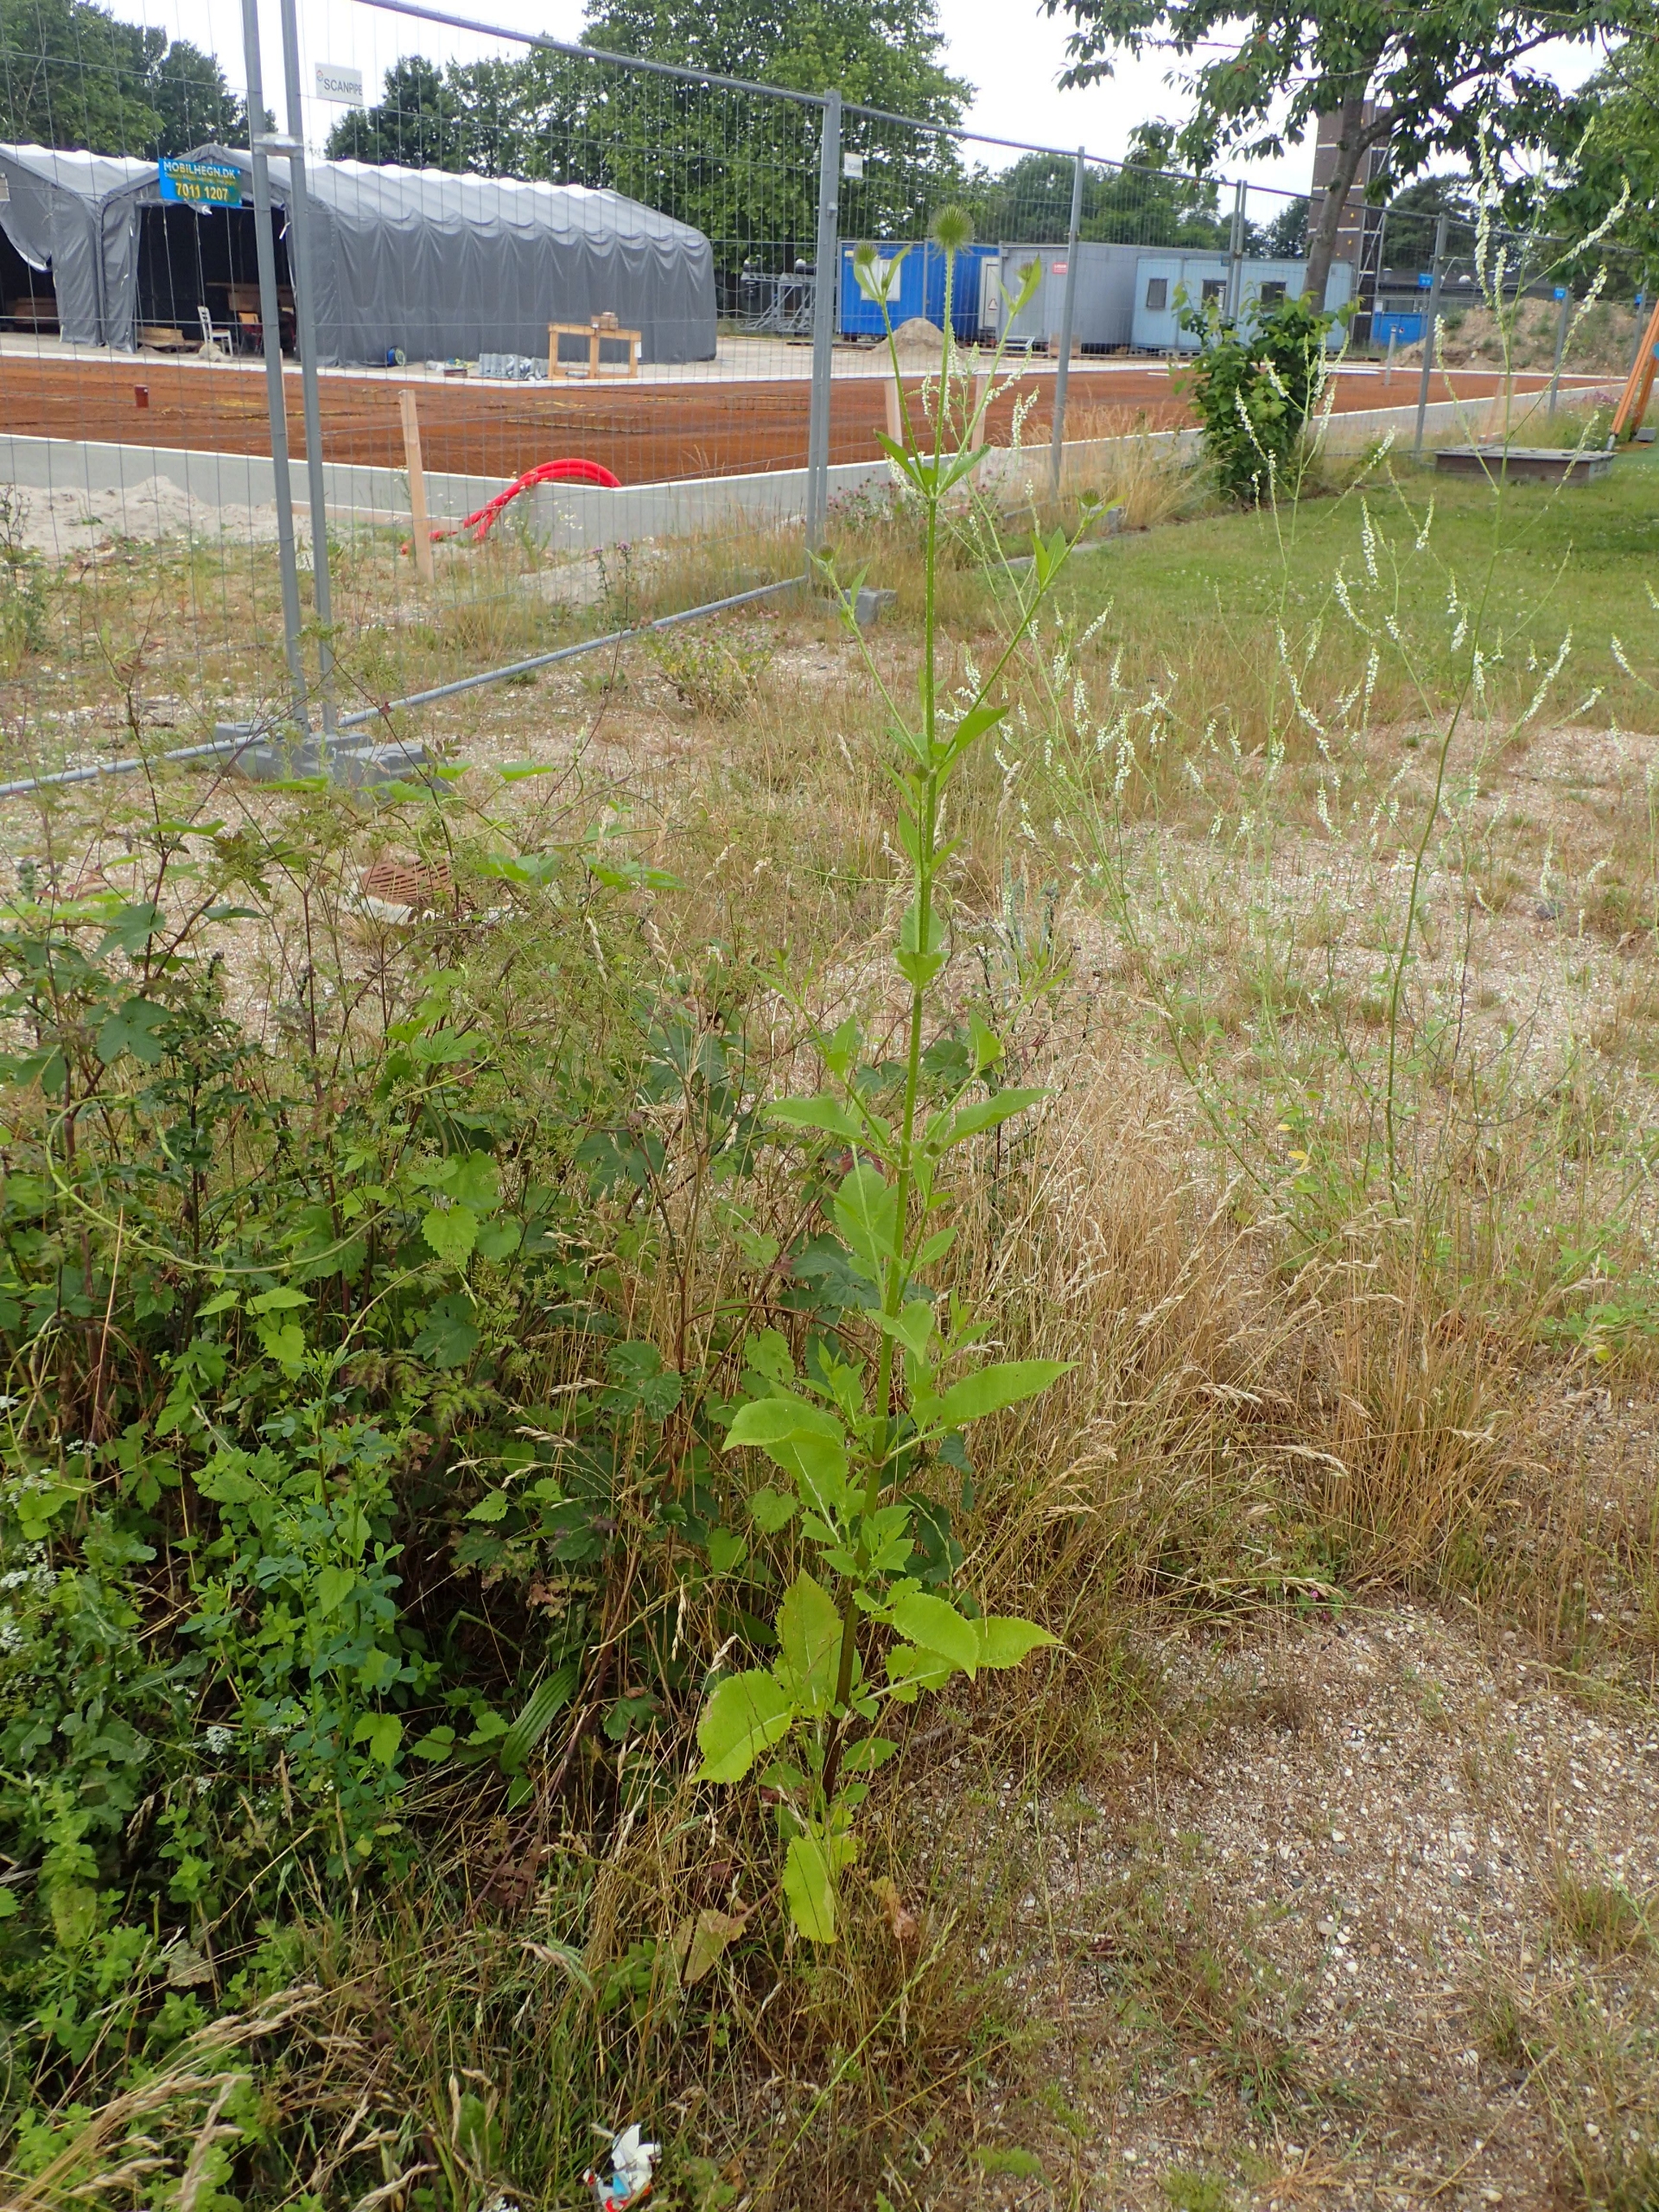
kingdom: Plantae
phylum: Tracheophyta
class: Magnoliopsida
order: Dipsacales
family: Caprifoliaceae
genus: Dipsacus
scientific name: Dipsacus strigosus
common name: Pindsvin-kartebolle
